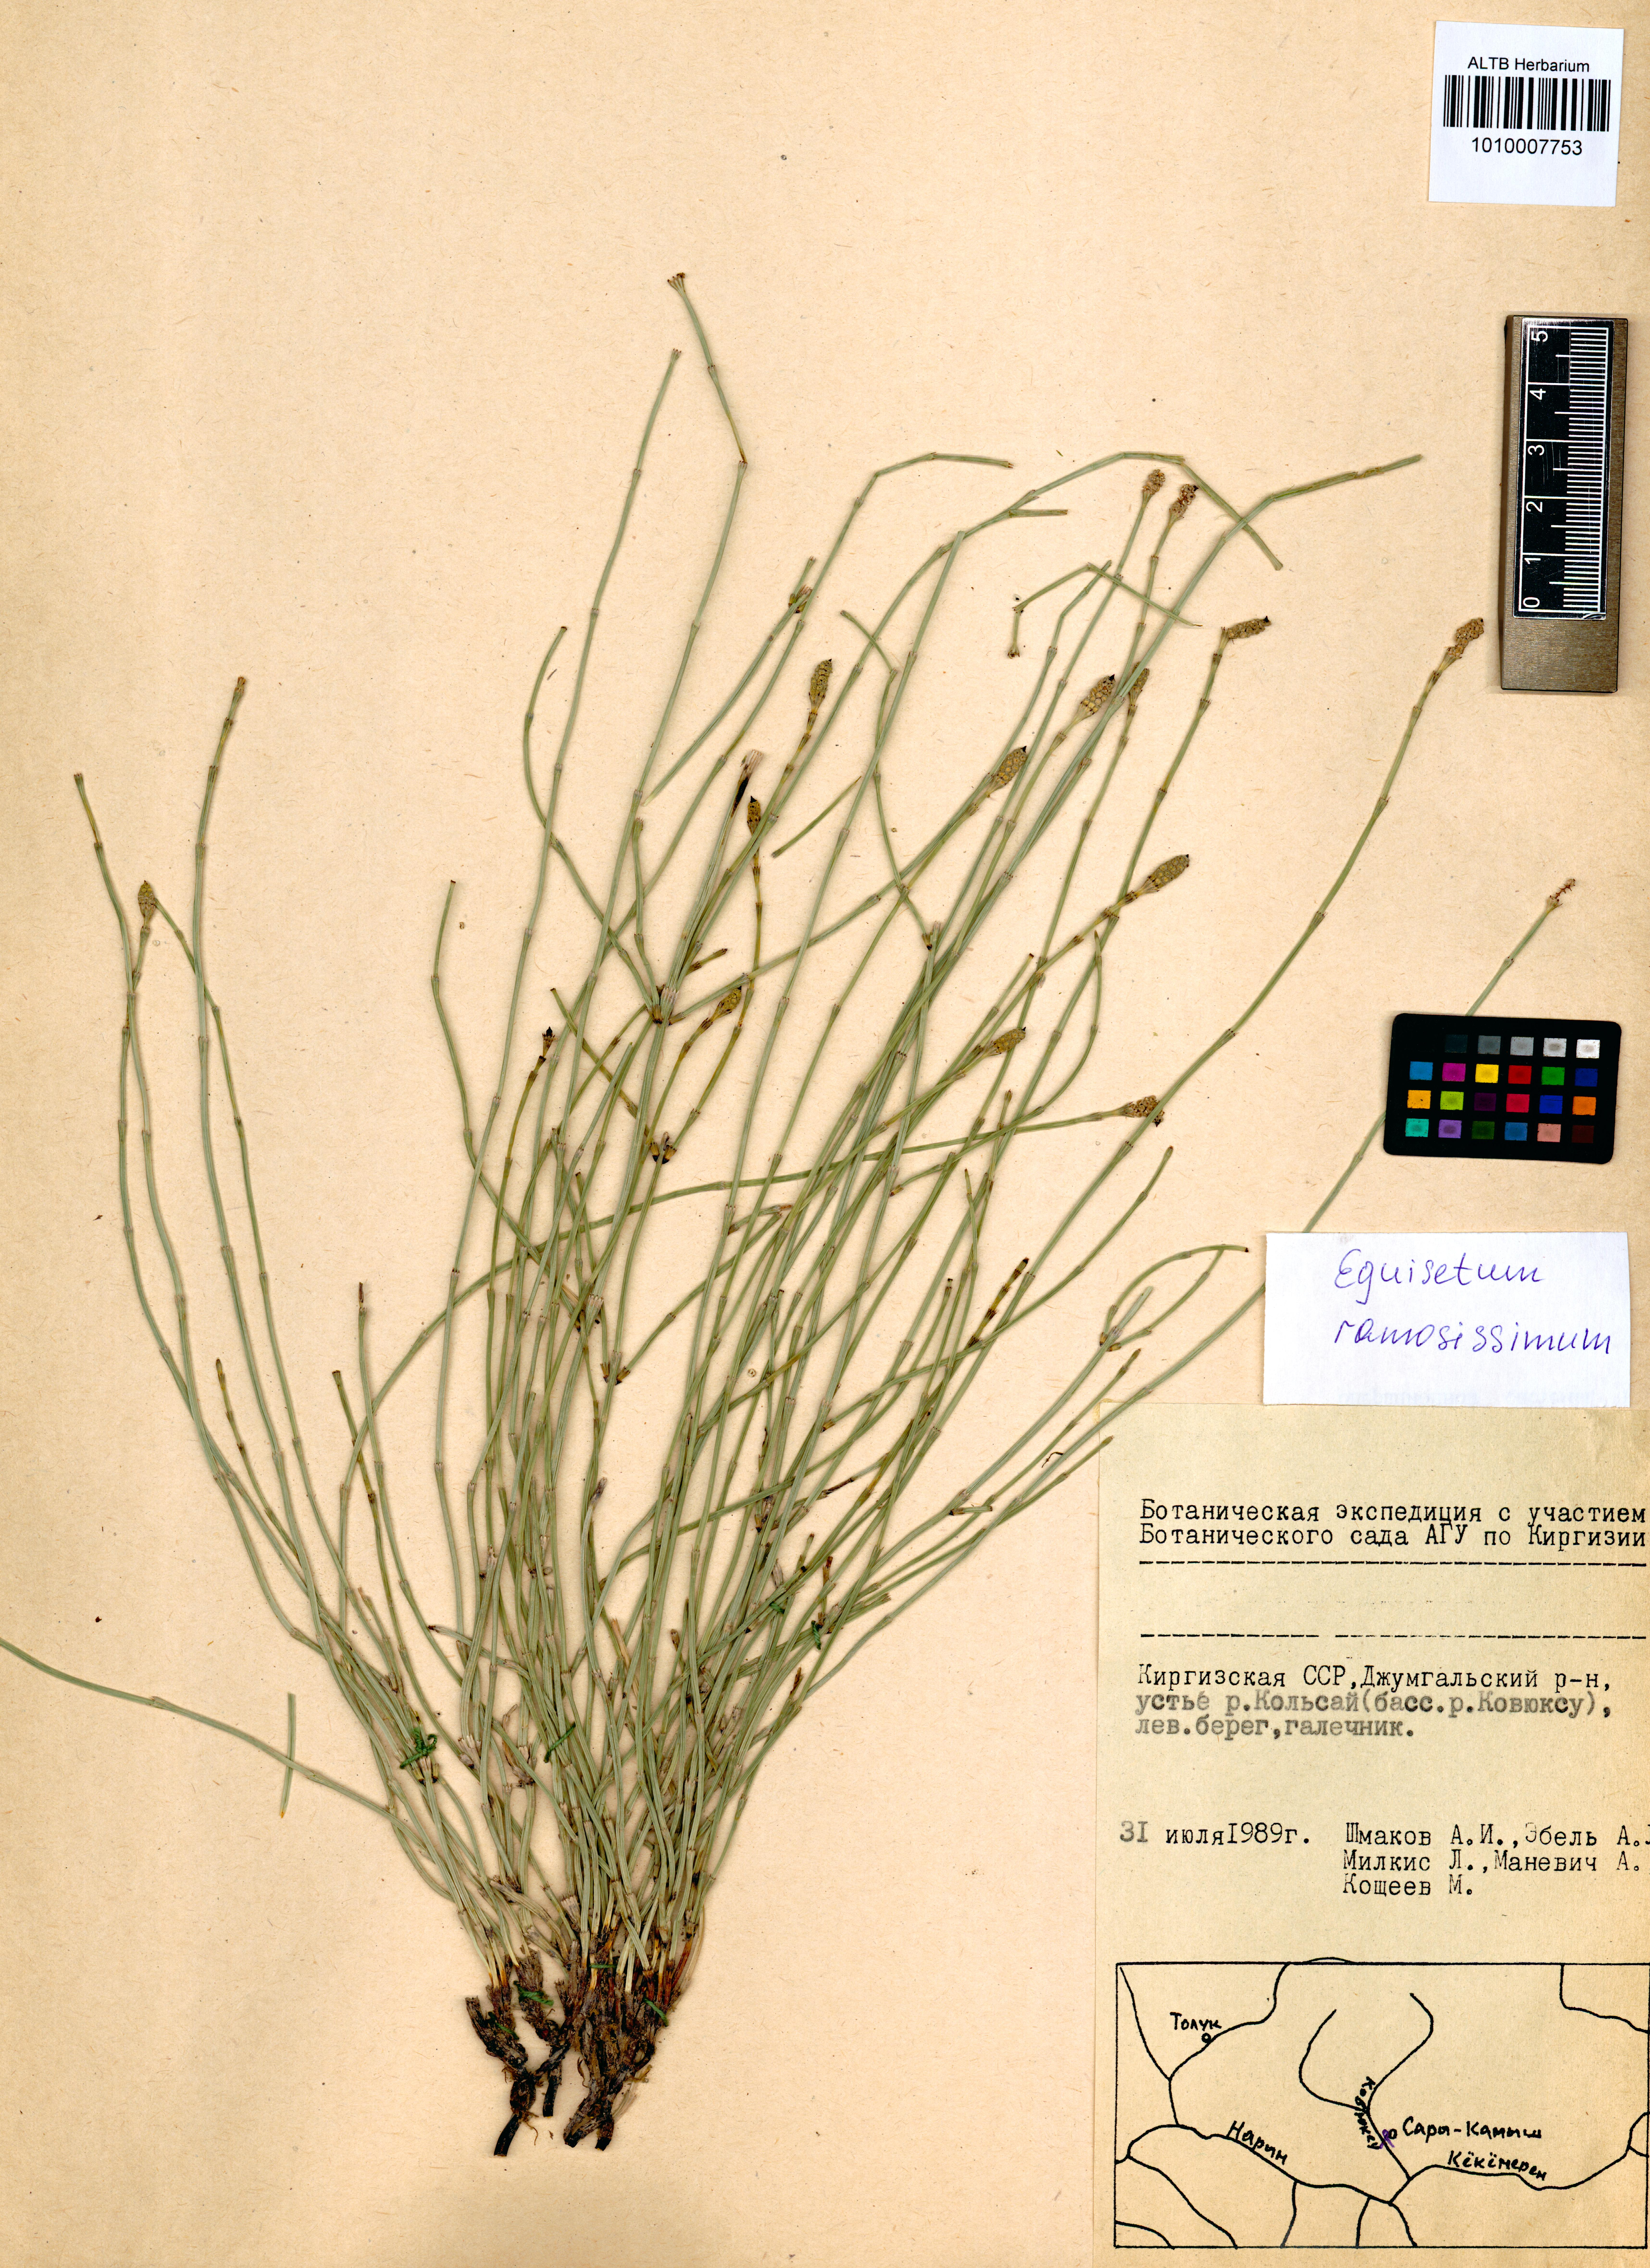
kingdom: Plantae
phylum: Tracheophyta
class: Polypodiopsida
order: Equisetales
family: Equisetaceae
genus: Equisetum
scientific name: Equisetum ramosissimum
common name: Branched horsetail
